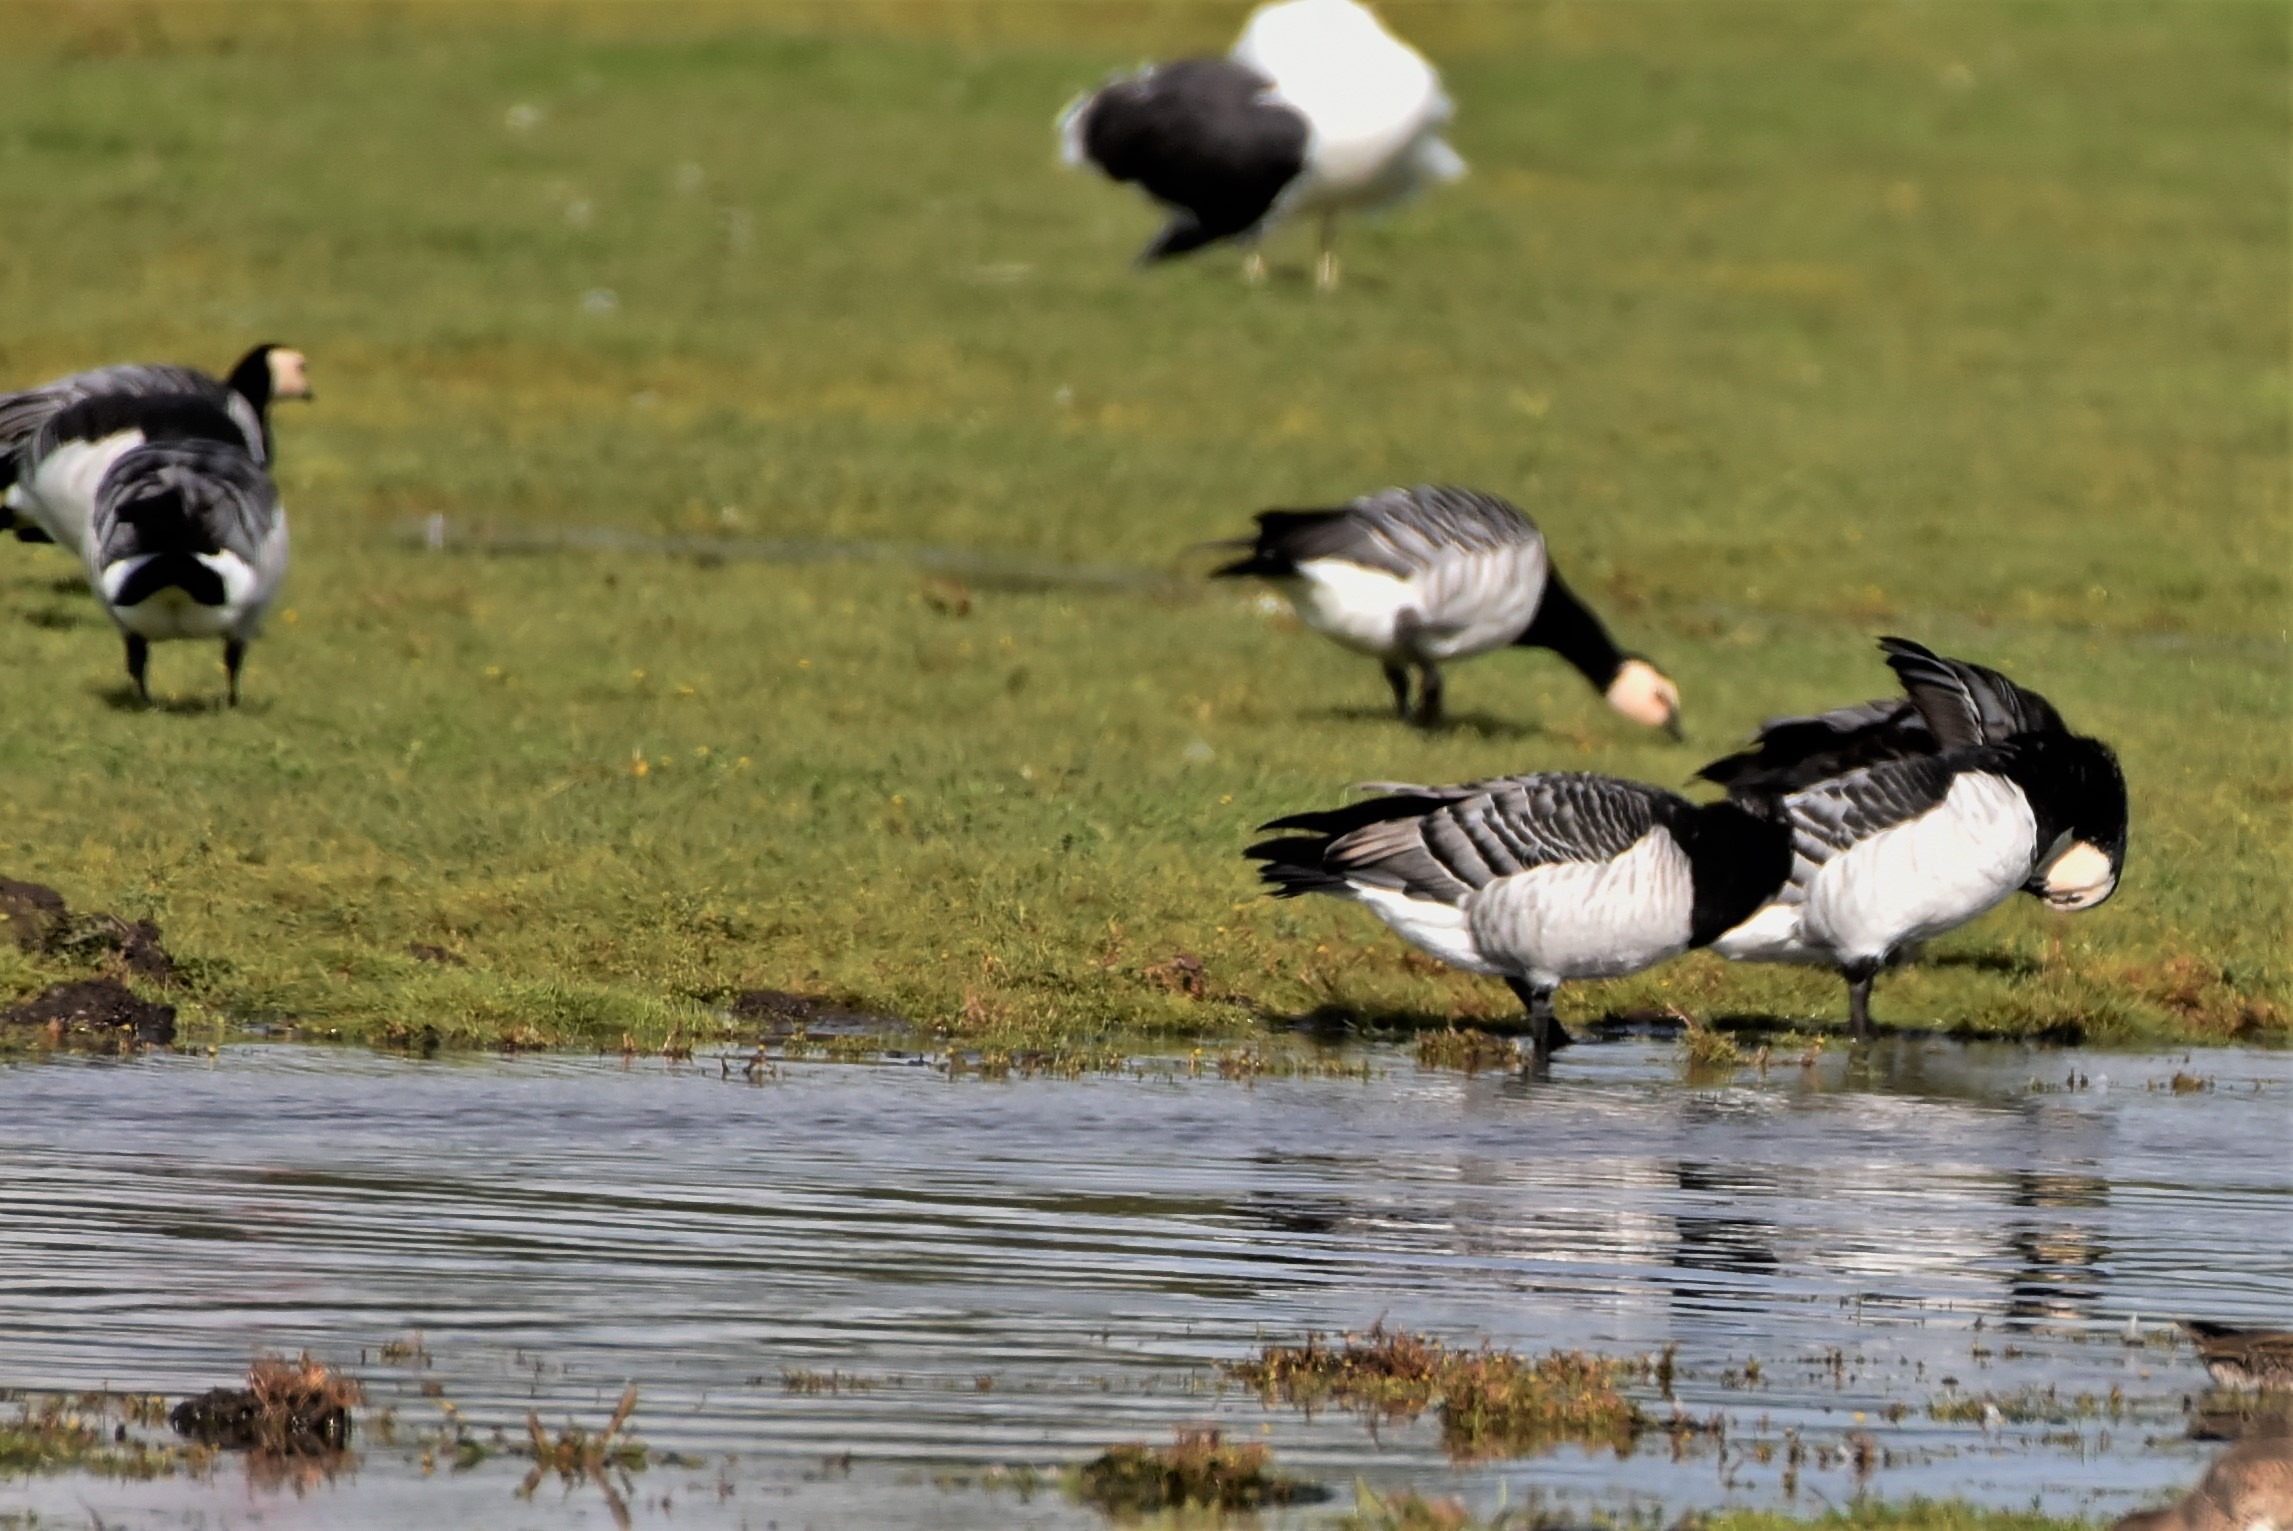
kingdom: Animalia
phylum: Chordata
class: Aves
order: Anseriformes
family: Anatidae
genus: Branta
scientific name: Branta leucopsis
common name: Bramgås
